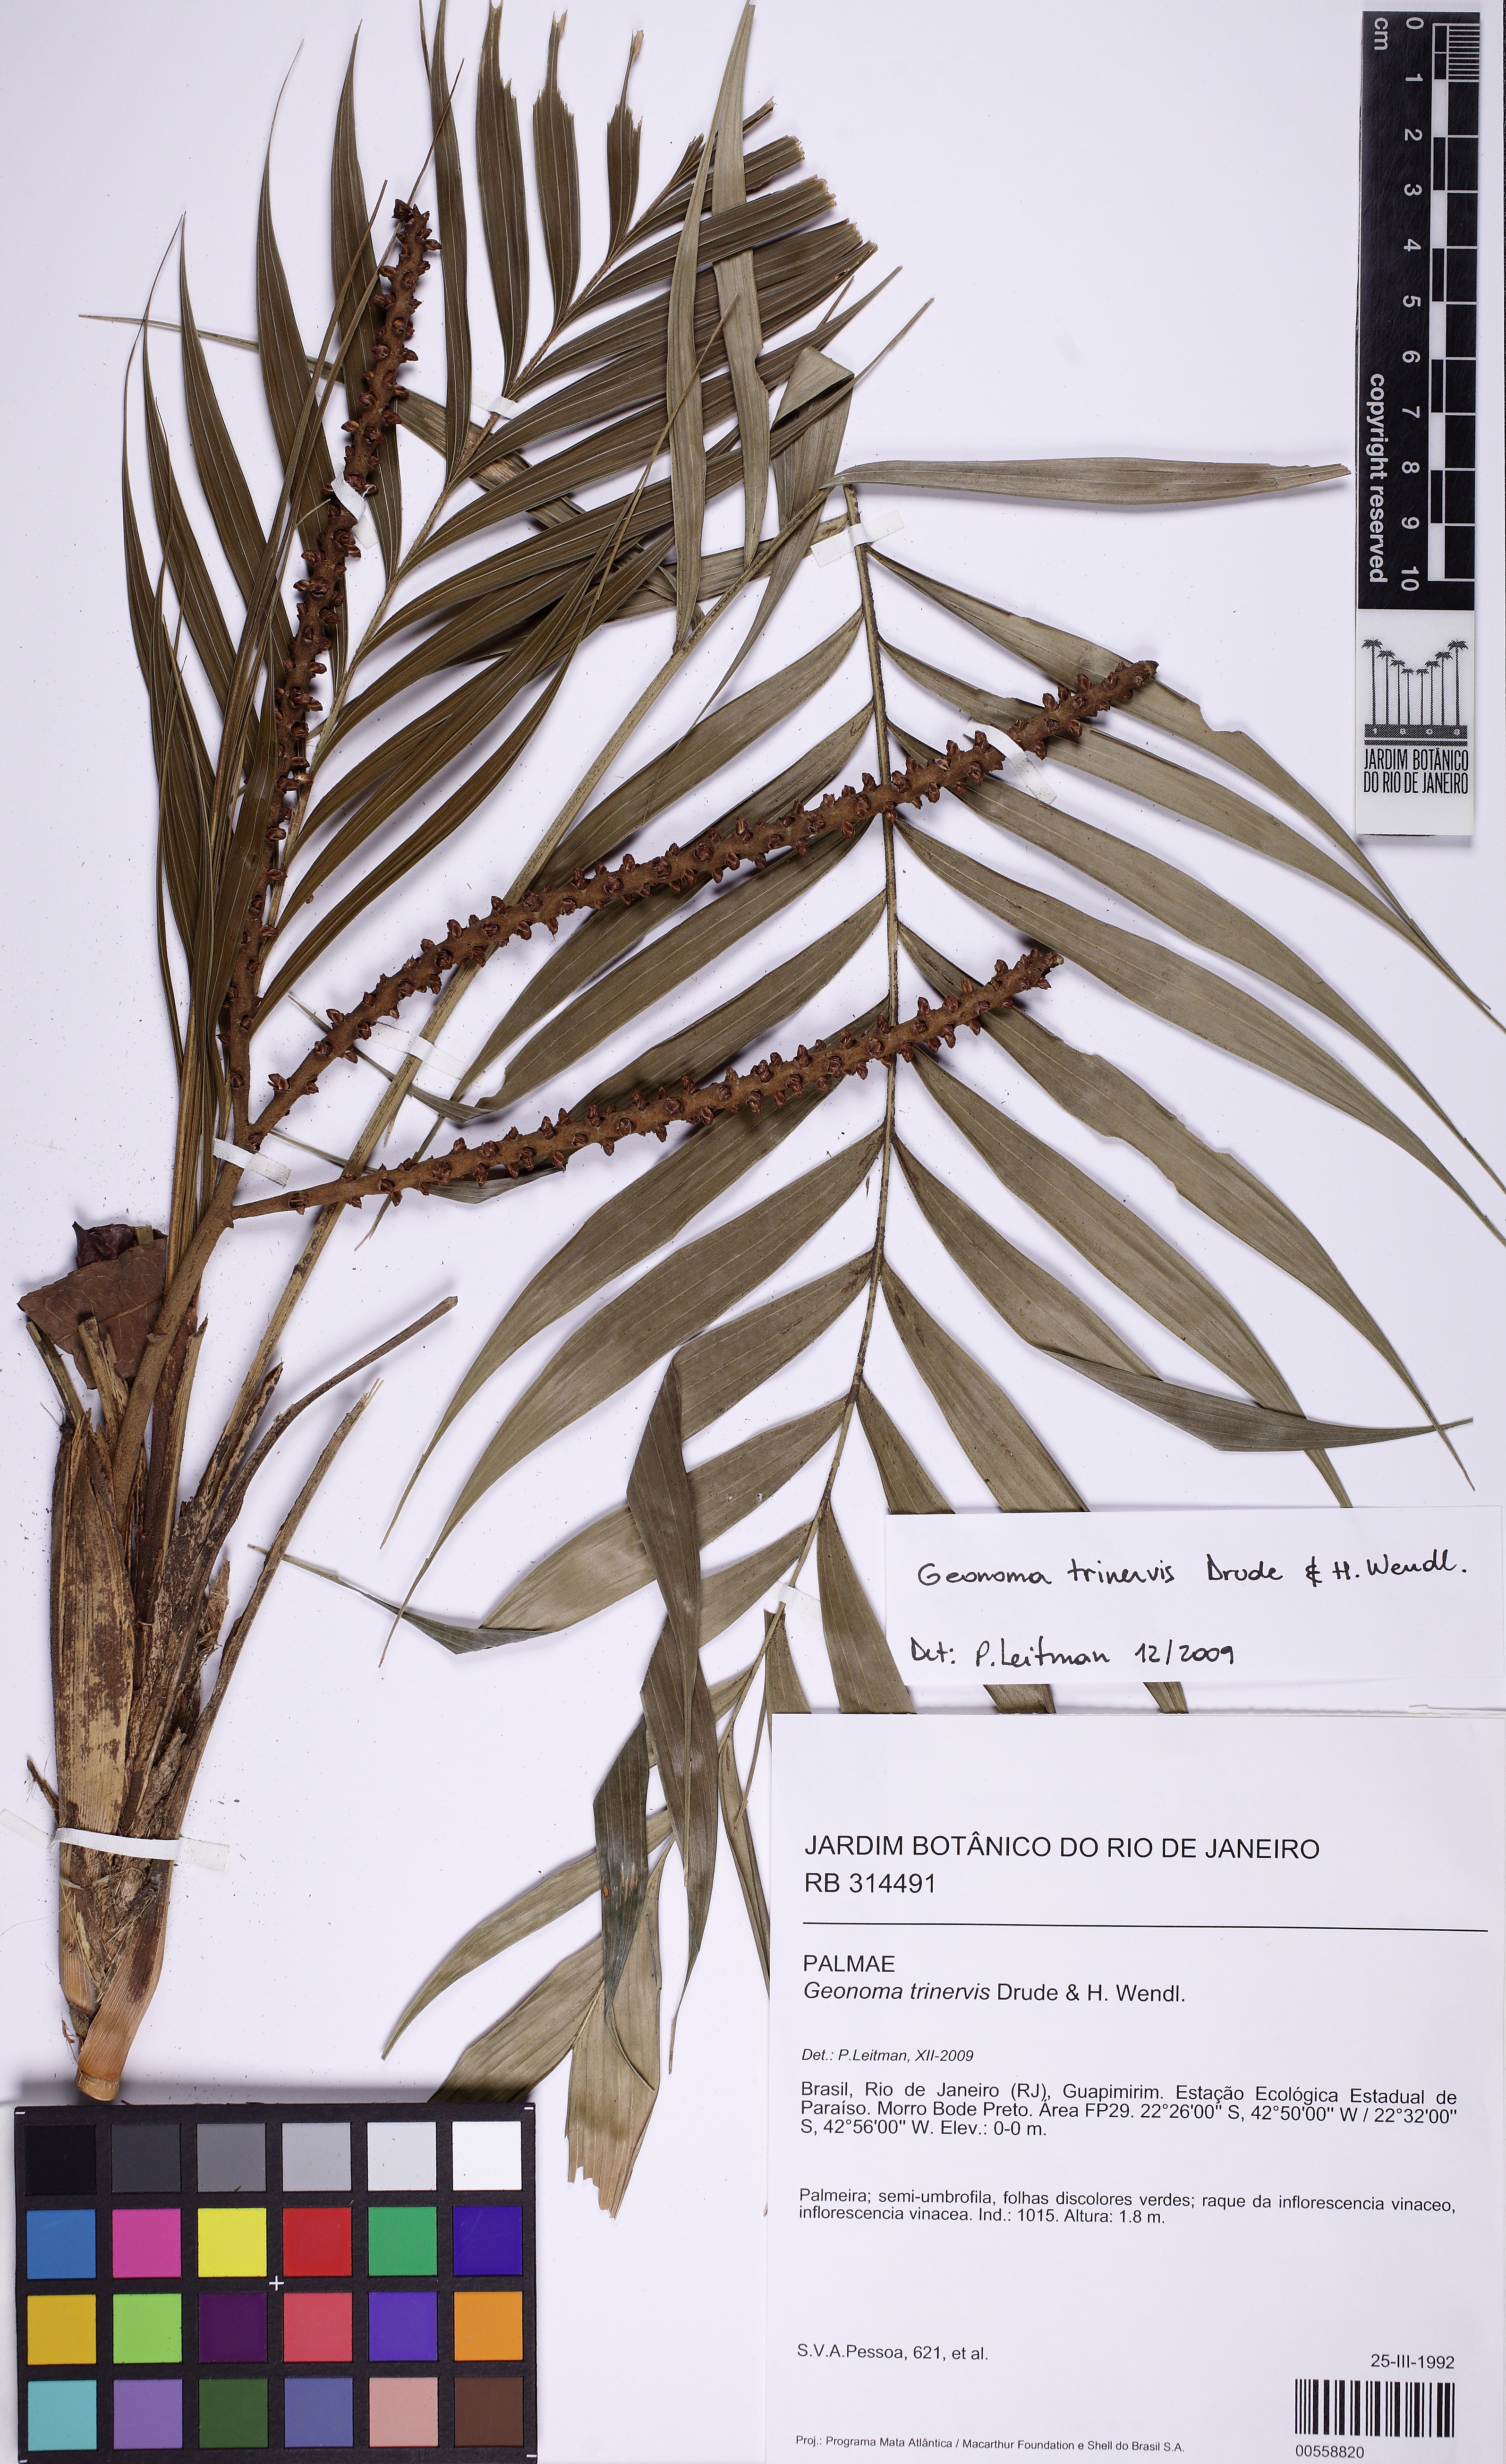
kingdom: Plantae
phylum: Tracheophyta
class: Liliopsida
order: Arecales
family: Arecaceae
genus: Geonoma
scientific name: Geonoma pohliana
